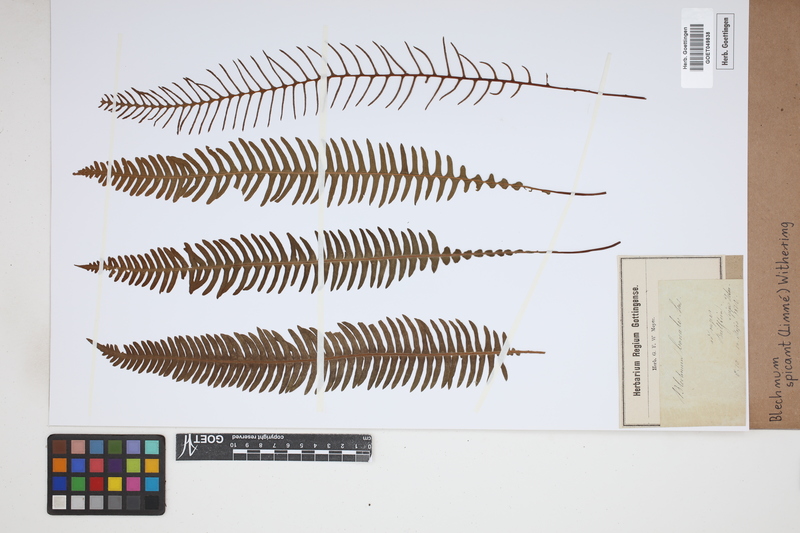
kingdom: Plantae
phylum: Tracheophyta
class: Polypodiopsida
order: Polypodiales
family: Blechnaceae
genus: Struthiopteris
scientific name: Struthiopteris spicant
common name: Deer fern
